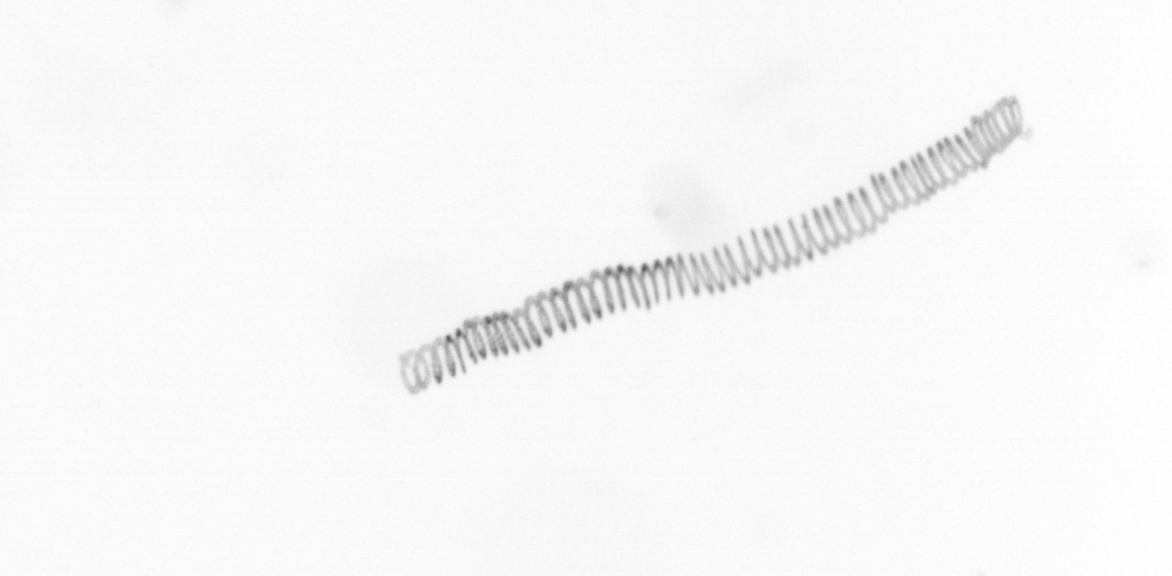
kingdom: Chromista
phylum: Ochrophyta
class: Bacillariophyceae
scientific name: Bacillariophyceae
